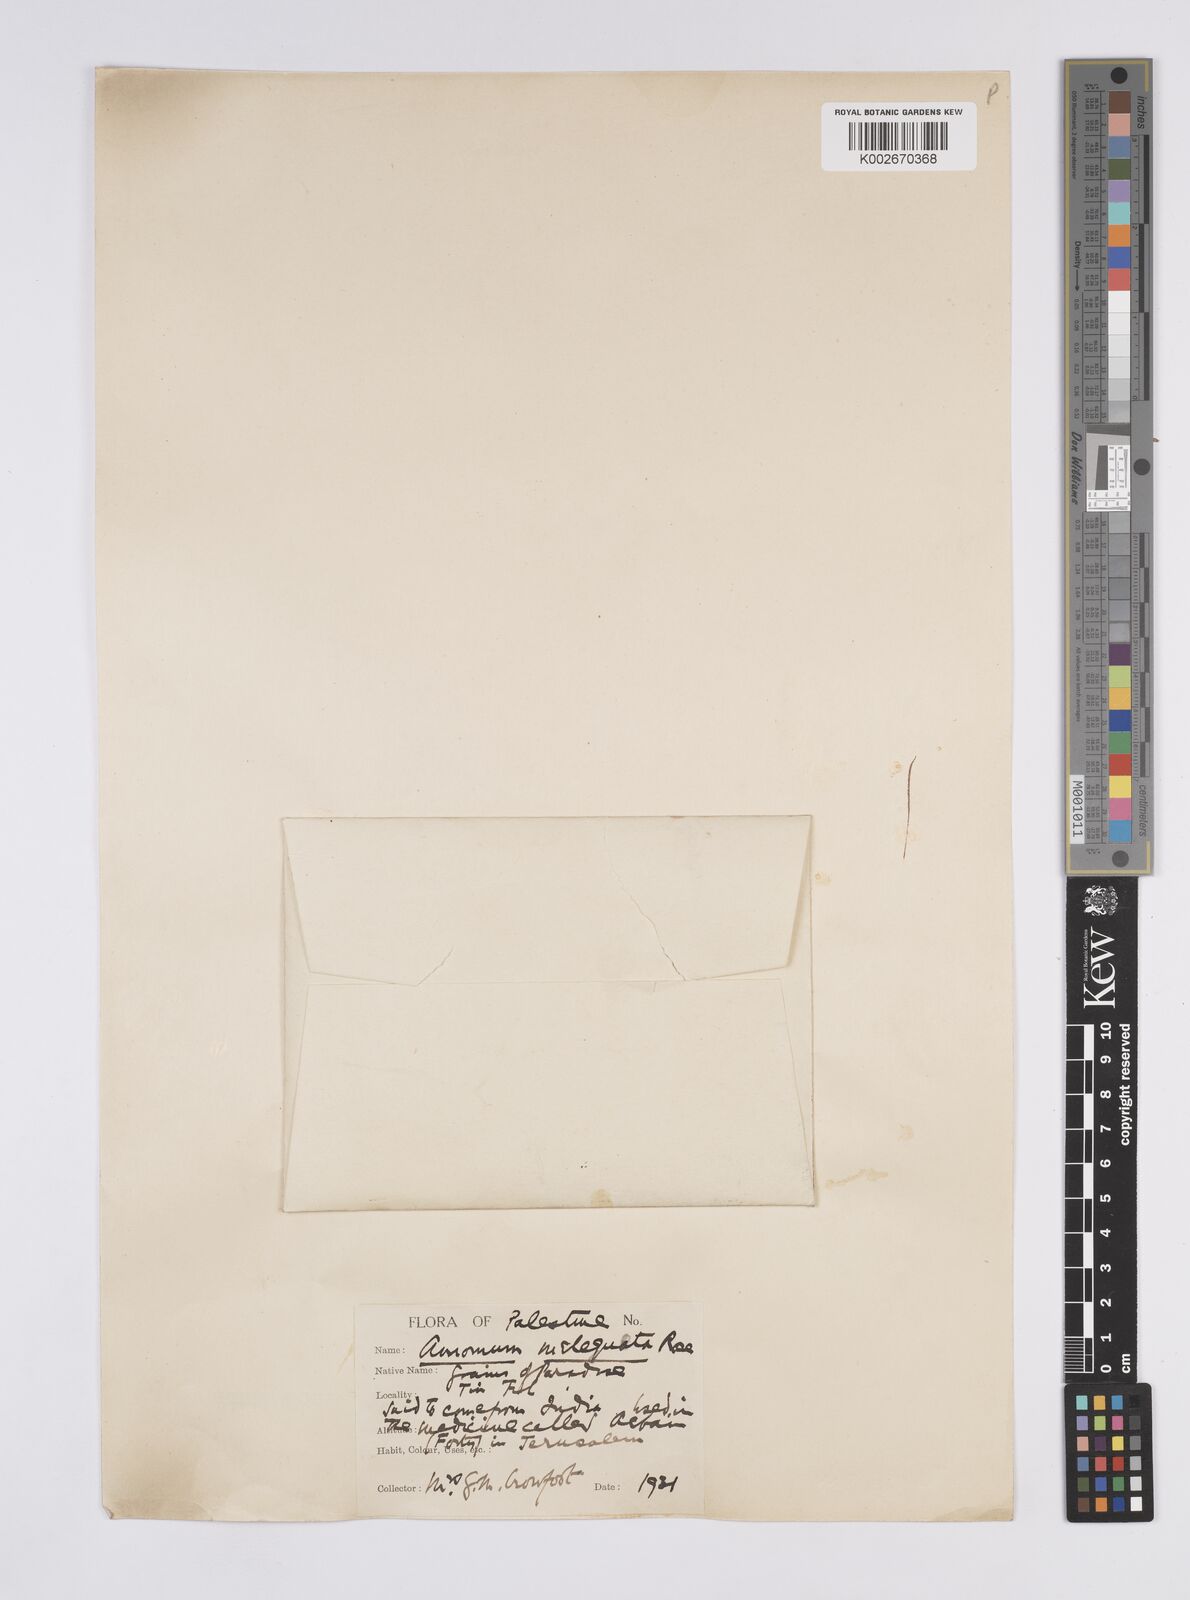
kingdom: Plantae
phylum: Tracheophyta
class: Liliopsida
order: Zingiberales
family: Zingiberaceae
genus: Aframomum
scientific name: Aframomum
